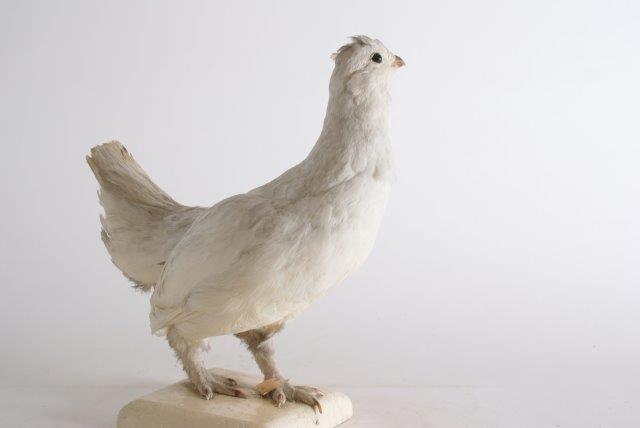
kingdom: Animalia
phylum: Chordata
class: Aves
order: Galliformes
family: Phasianidae
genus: Lagopus
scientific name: Lagopus muta
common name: Alpensneeuwhoen
